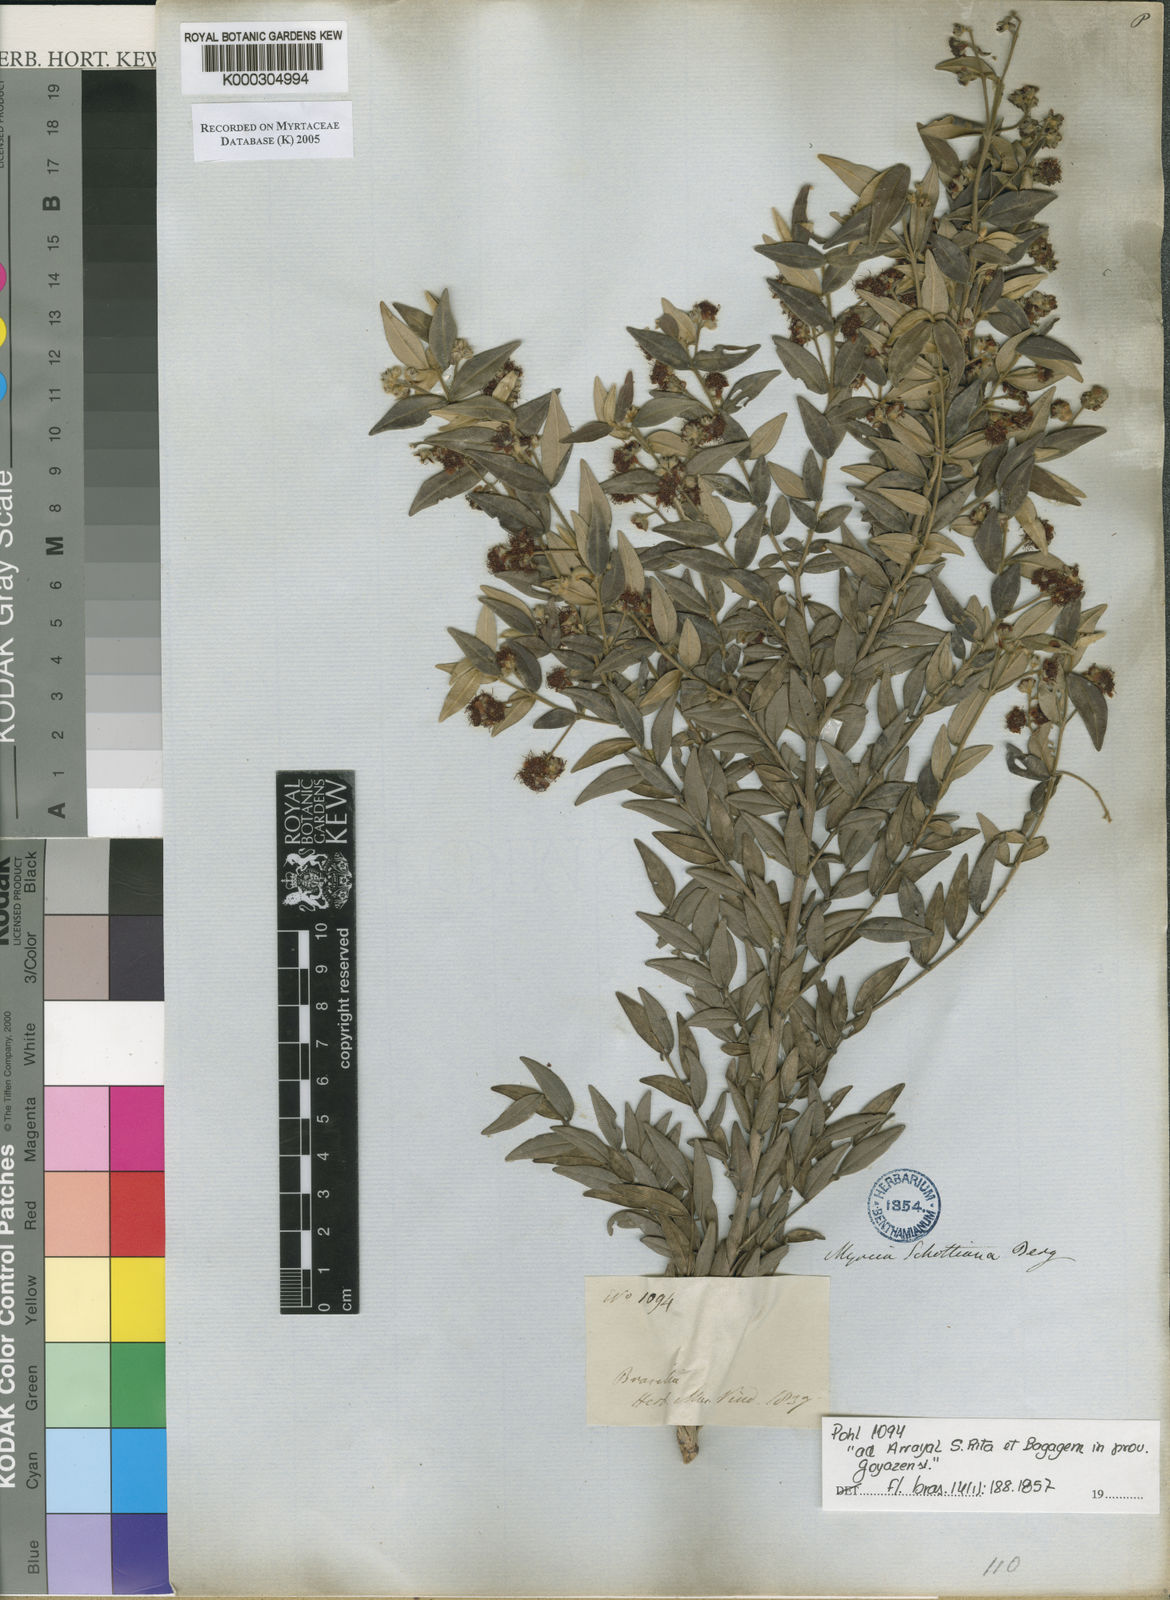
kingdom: Plantae
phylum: Tracheophyta
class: Magnoliopsida
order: Myrtales
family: Myrtaceae
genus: Myrcia
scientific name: Myrcia schottiana
